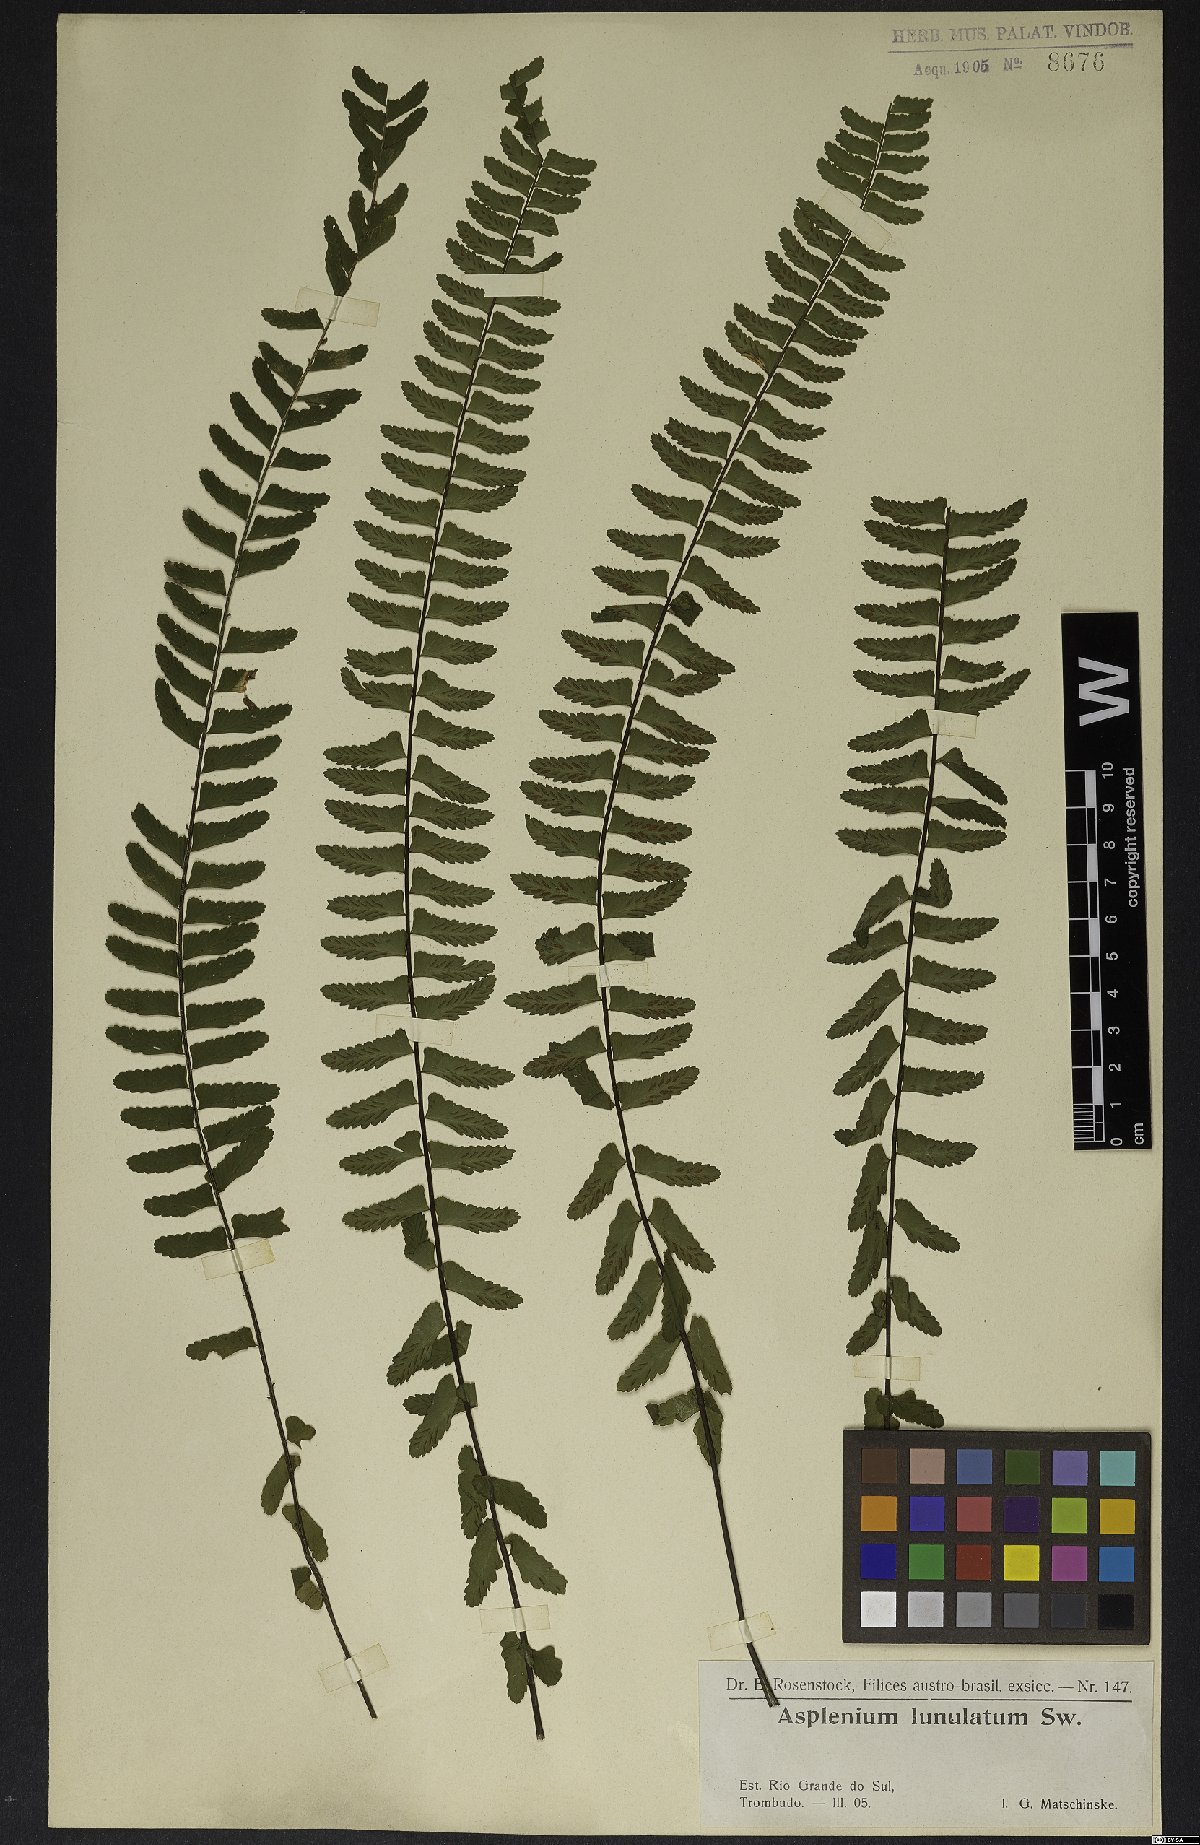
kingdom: Plantae
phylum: Tracheophyta
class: Polypodiopsida
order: Polypodiales
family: Aspleniaceae
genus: Asplenium
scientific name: Asplenium lunulatum
